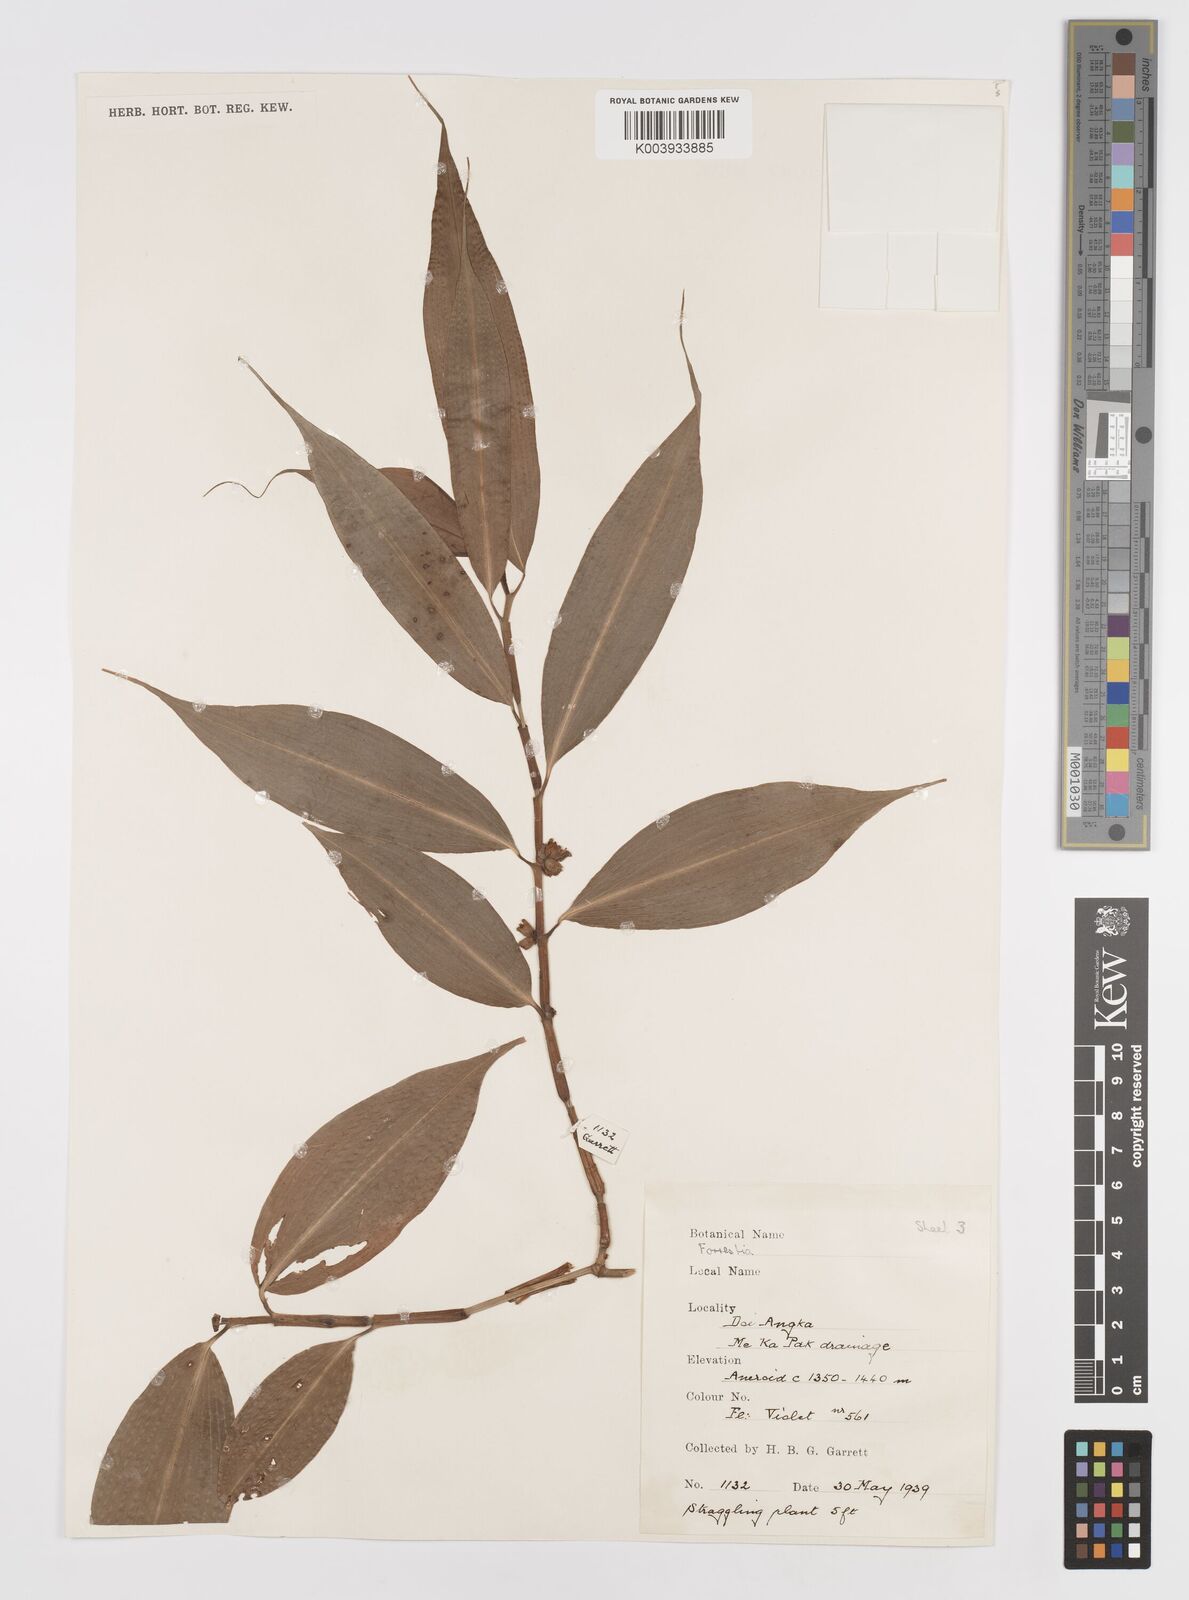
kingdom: Plantae
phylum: Tracheophyta
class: Liliopsida
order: Commelinales
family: Commelinaceae
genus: Amischotolype
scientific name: Amischotolype
